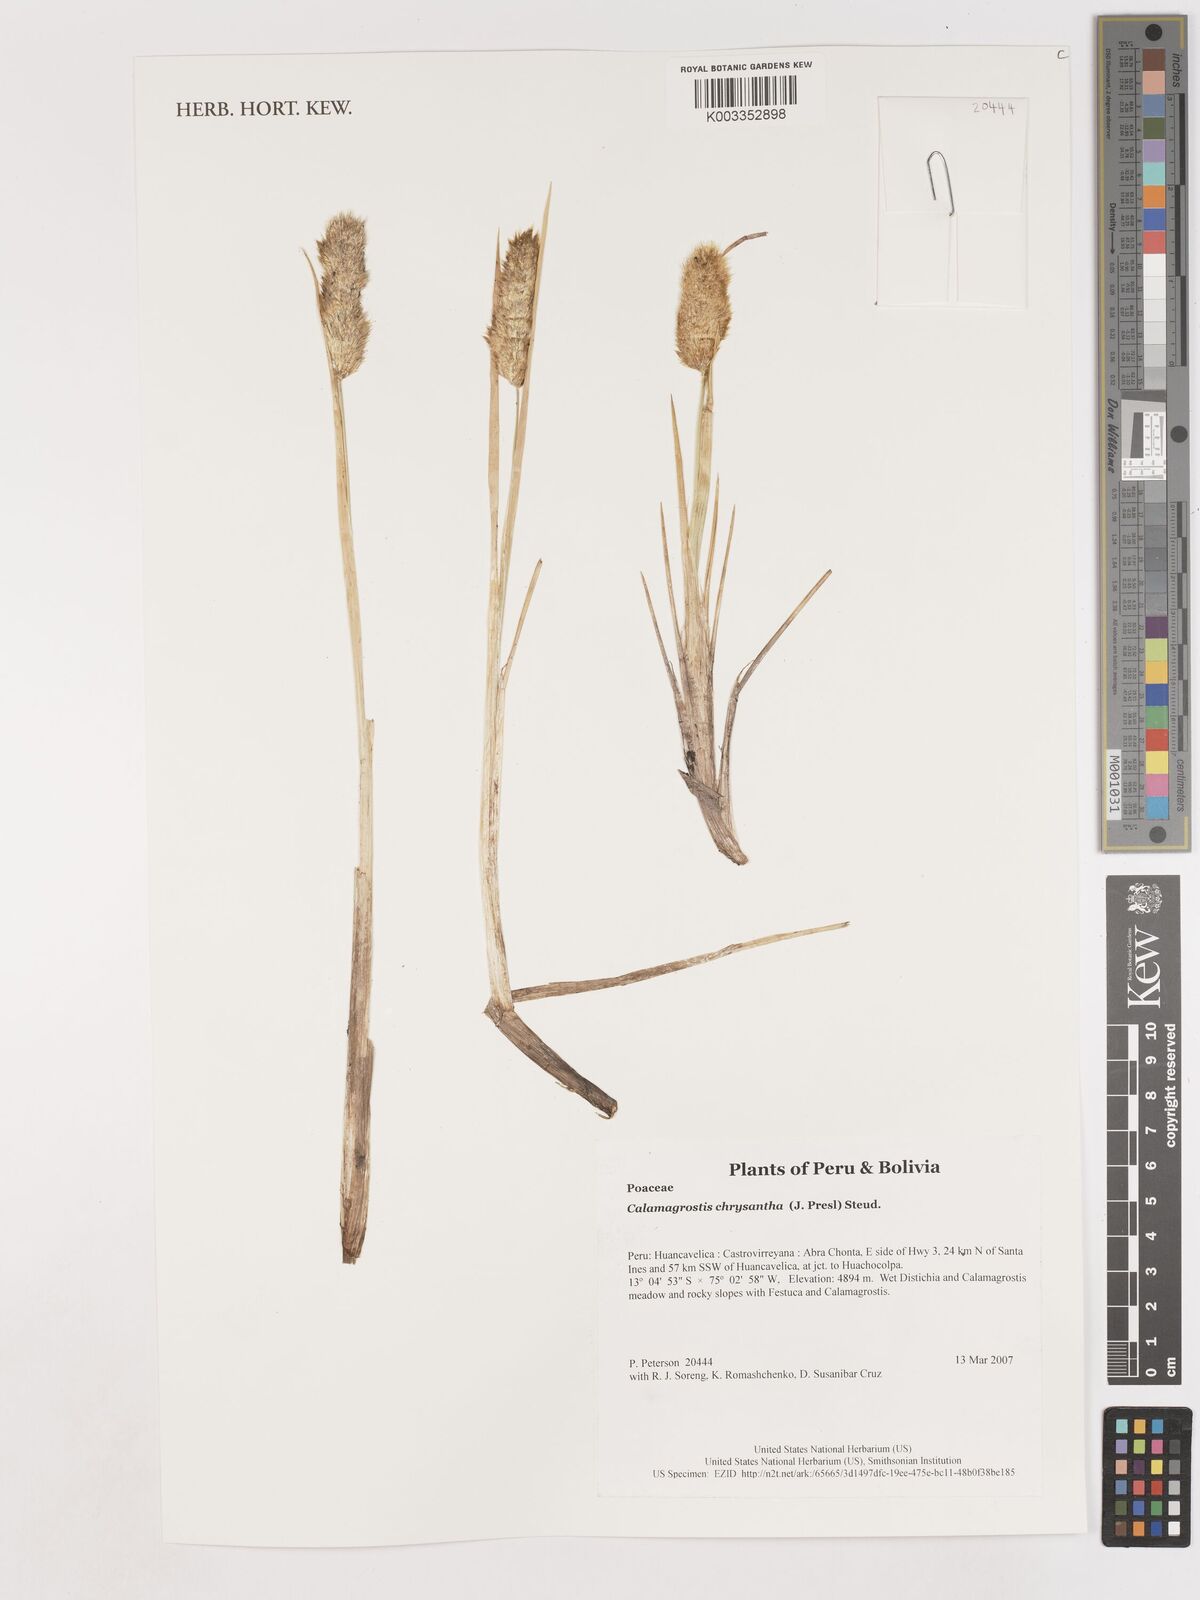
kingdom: Plantae
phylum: Tracheophyta
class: Liliopsida
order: Poales
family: Poaceae
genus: Deschampsia
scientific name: Deschampsia chrysantha
